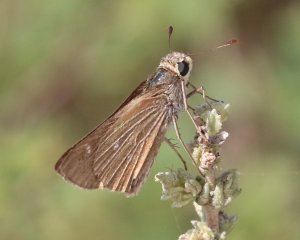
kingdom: Animalia
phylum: Arthropoda
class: Insecta
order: Lepidoptera
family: Hesperiidae
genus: Panoquina
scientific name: Panoquina panoquinoides
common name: Obscure Skipper
